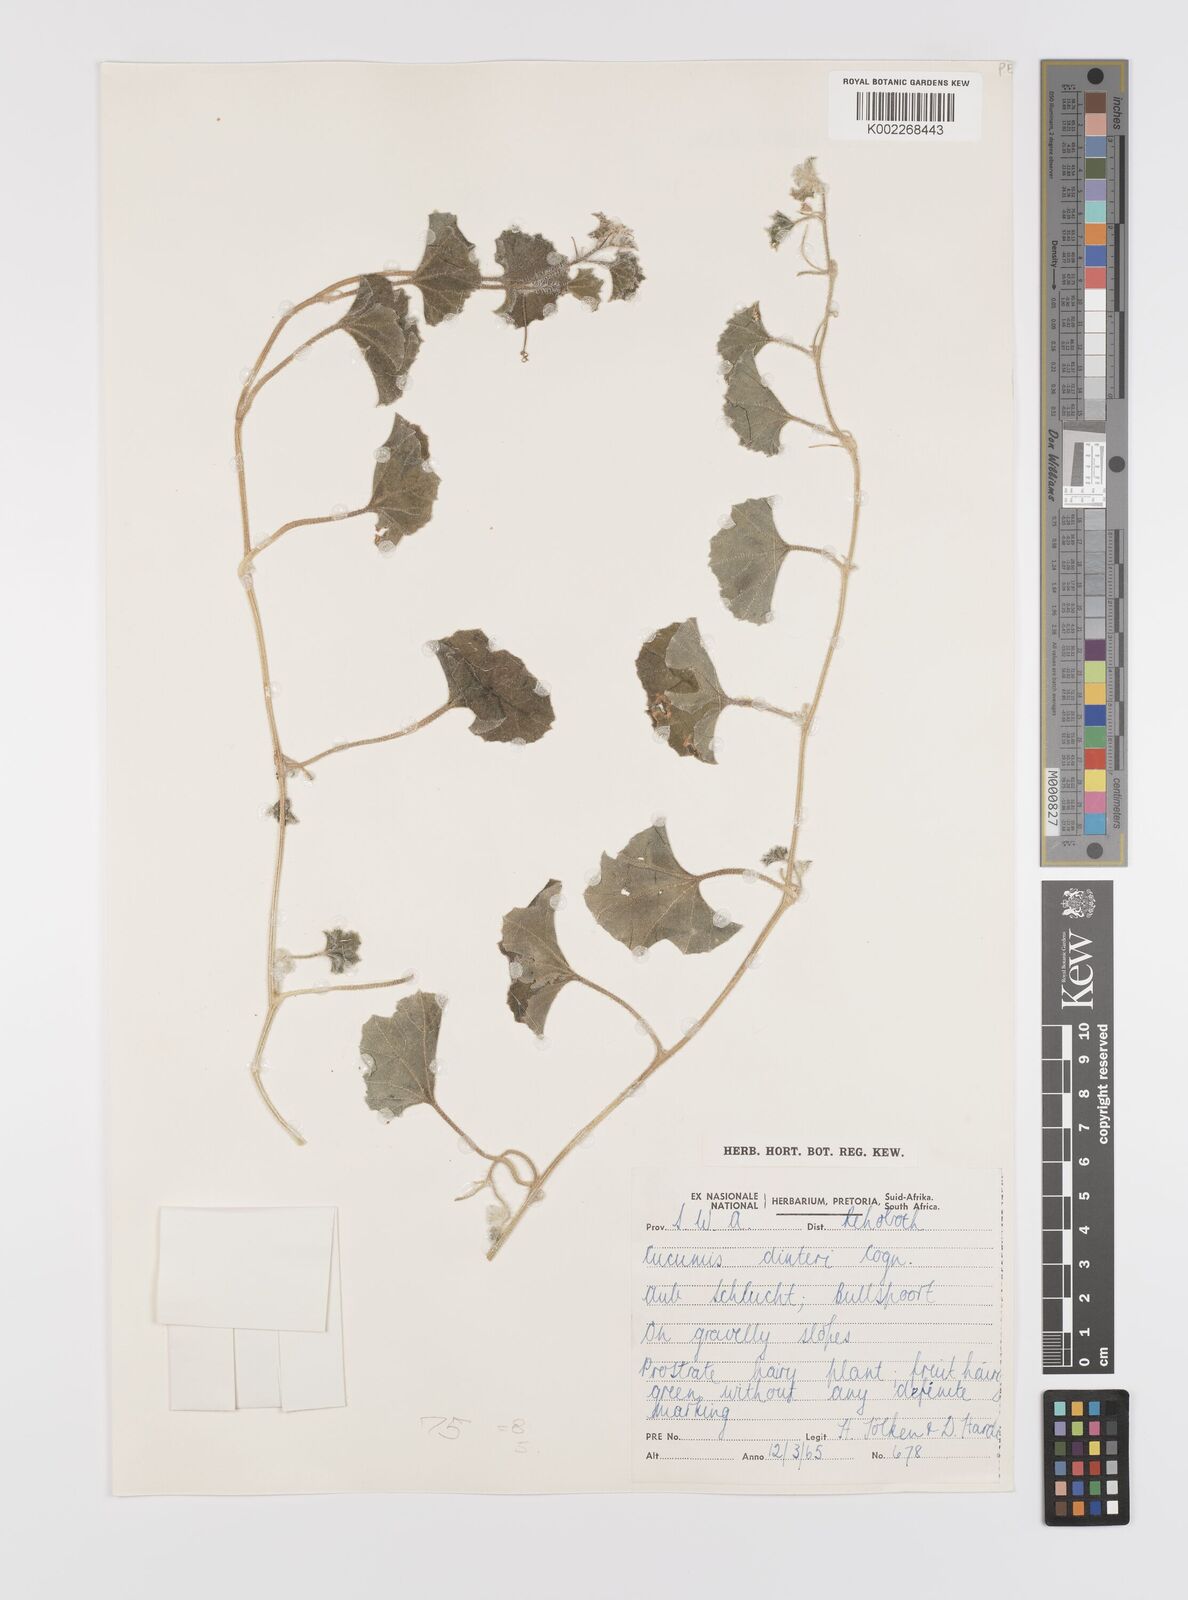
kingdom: Plantae
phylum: Tracheophyta
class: Magnoliopsida
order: Cucurbitales
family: Cucurbitaceae
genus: Cucumis
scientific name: Cucumis sagittatus
